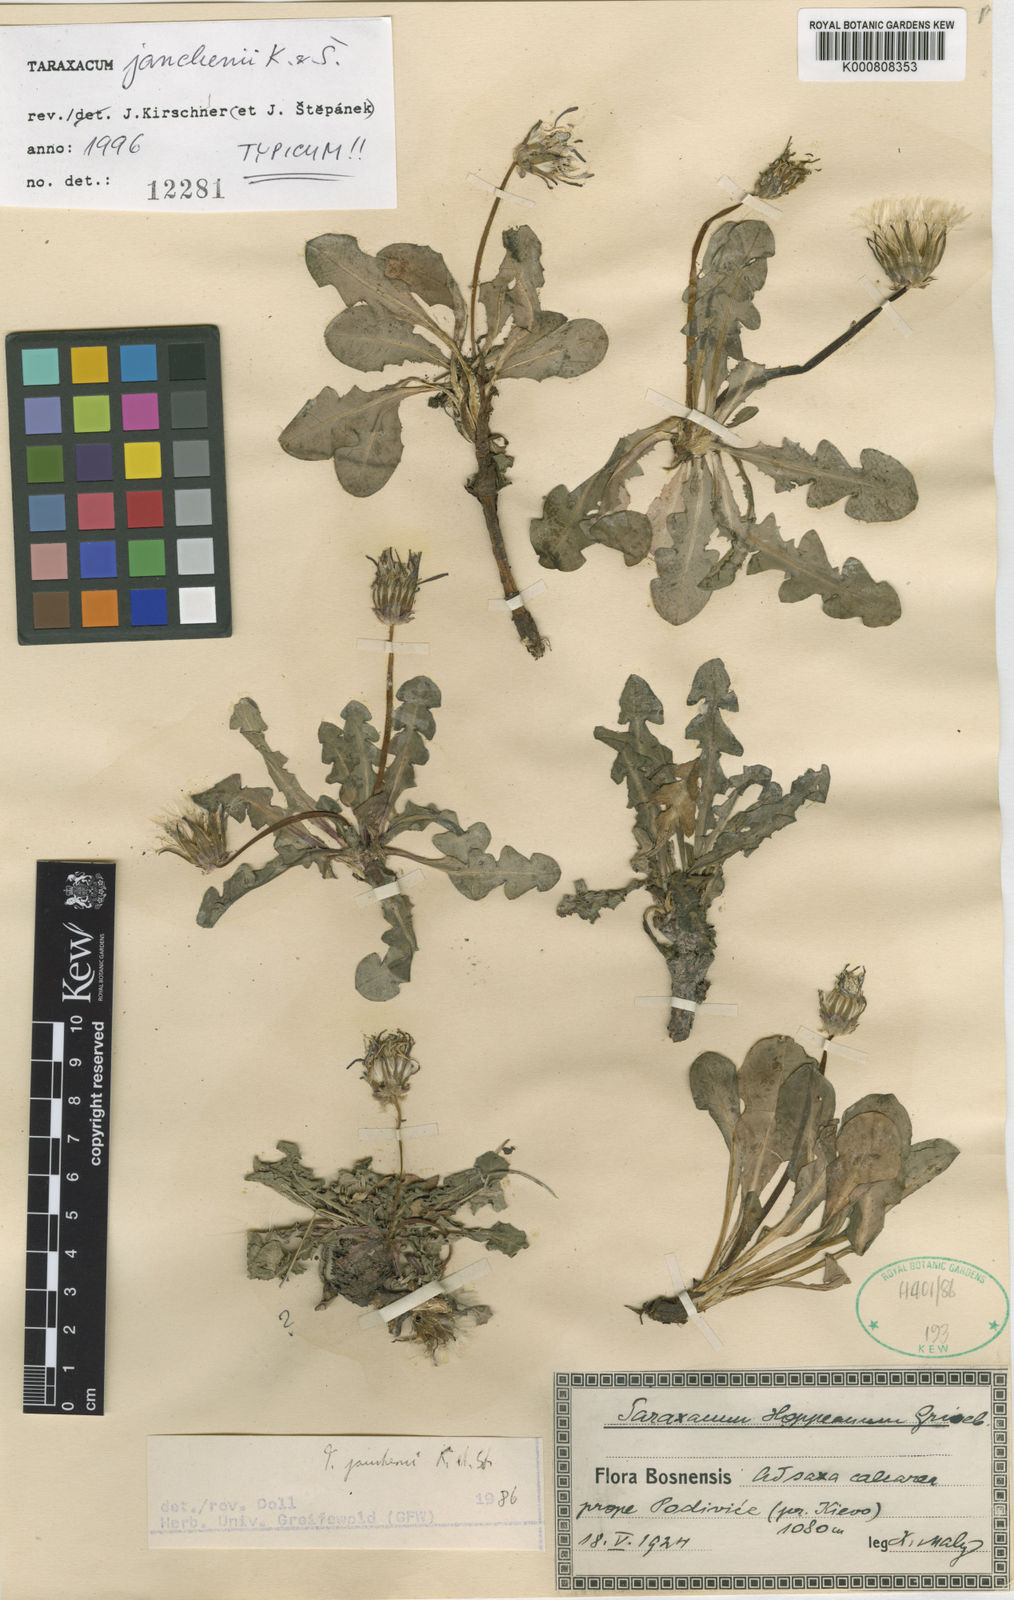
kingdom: Plantae
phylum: Tracheophyta
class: Magnoliopsida
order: Asterales
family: Asteraceae
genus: Taraxacum
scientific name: Taraxacum
